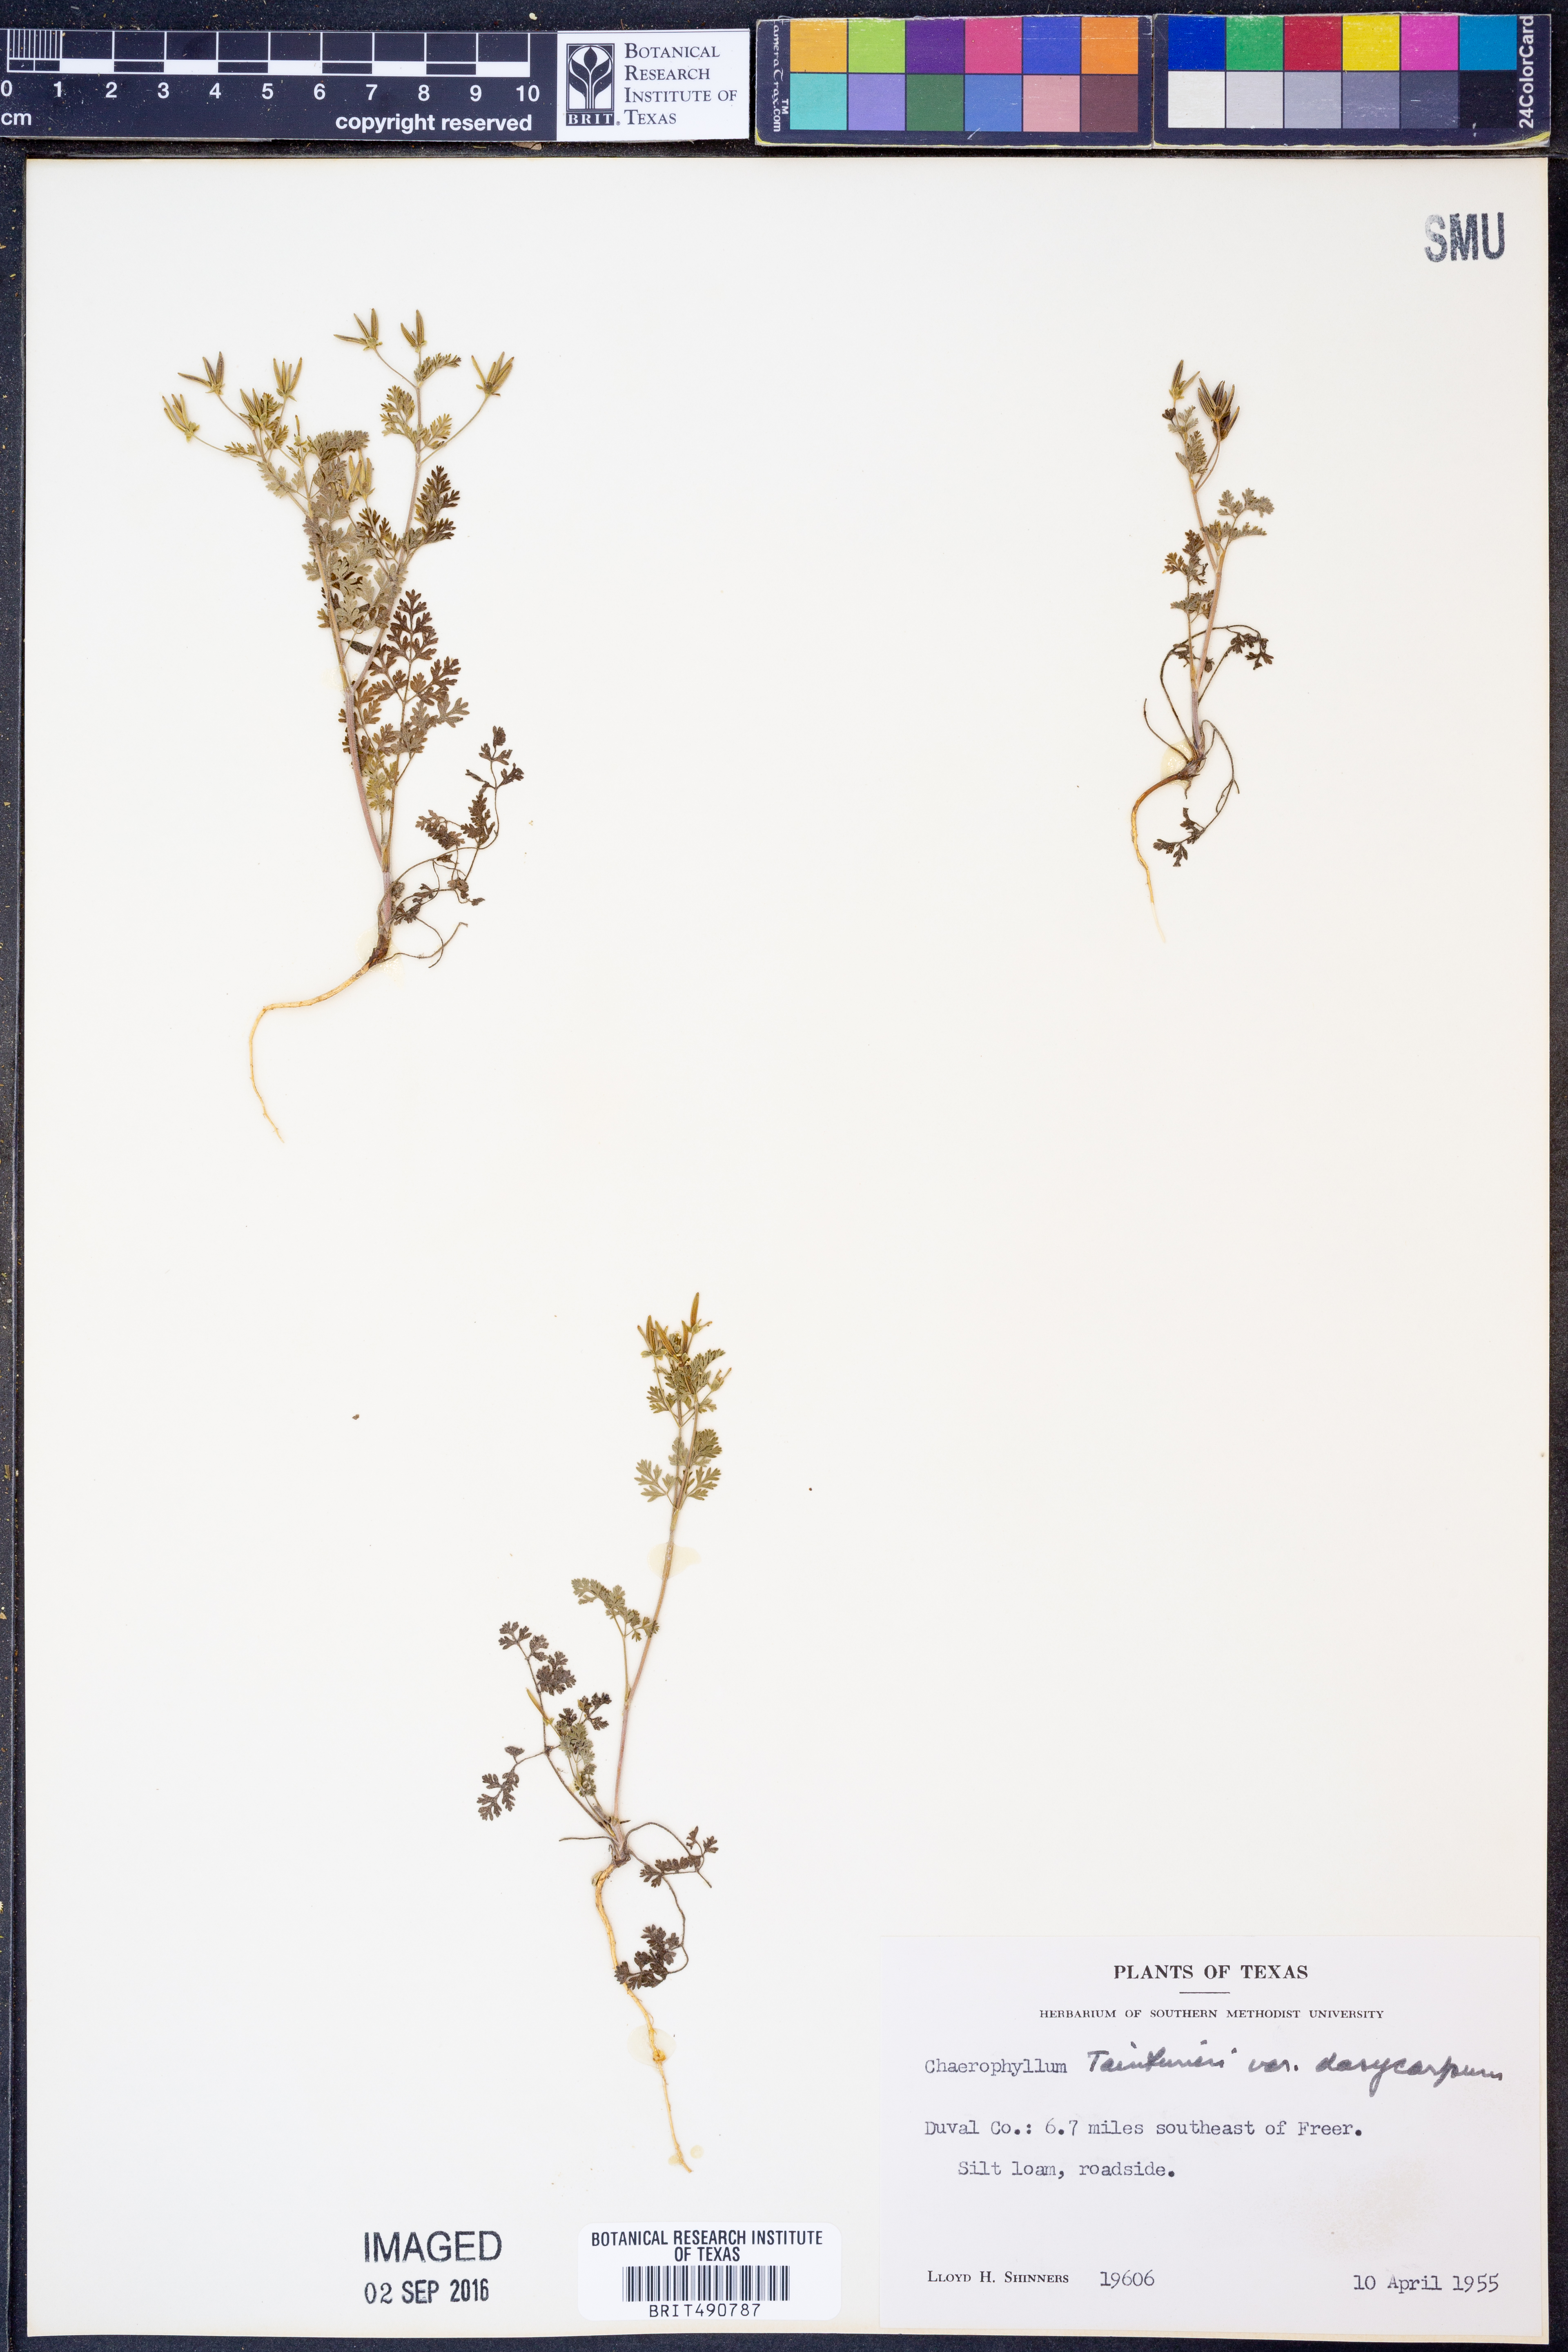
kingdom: Plantae
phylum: Tracheophyta
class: Magnoliopsida
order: Apiales
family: Apiaceae
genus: Chaerophyllum
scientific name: Chaerophyllum dasycarpum
